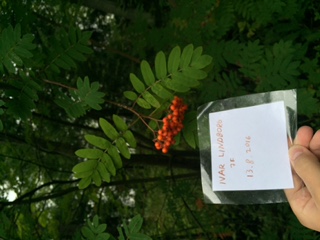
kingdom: Plantae
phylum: Tracheophyta
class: Magnoliopsida
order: Rosales
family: Rosaceae
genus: Sorbus
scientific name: Sorbus aucuparia
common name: Rowan
